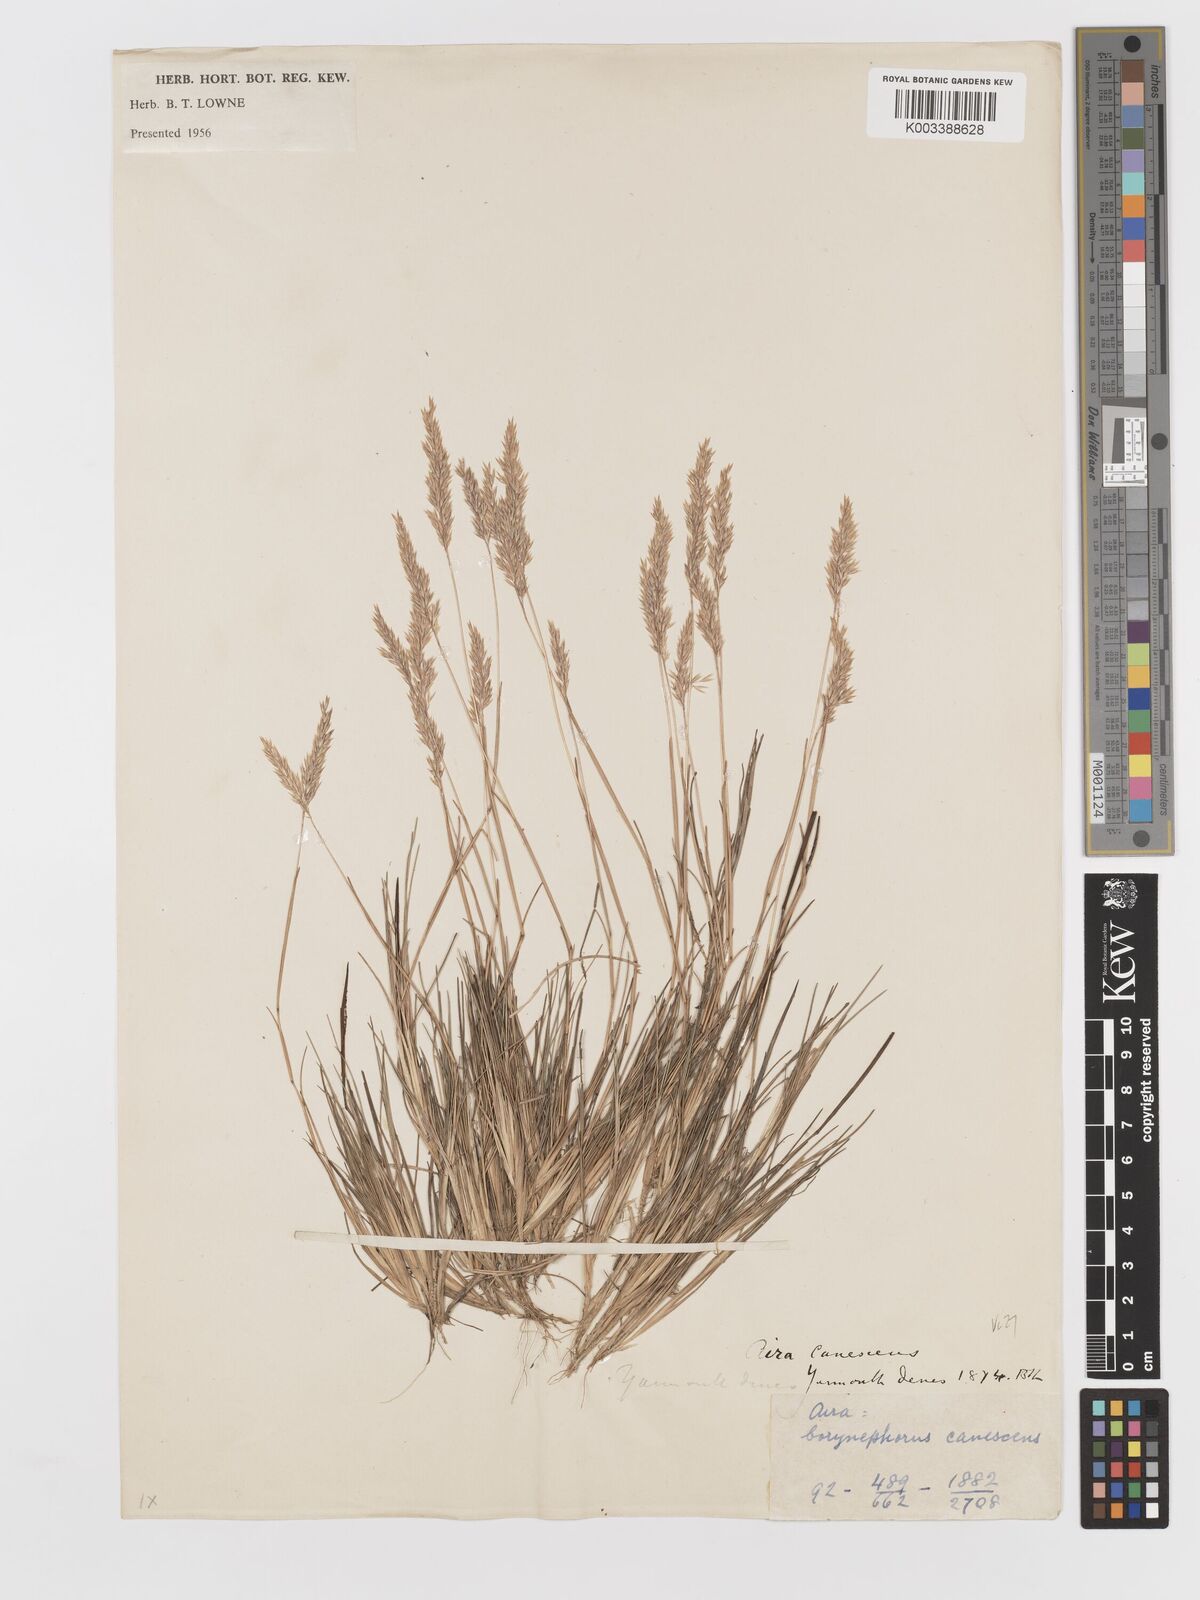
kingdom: Plantae
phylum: Tracheophyta
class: Liliopsida
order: Poales
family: Poaceae
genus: Corynephorus
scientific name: Corynephorus canescens
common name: Grey hair-grass
